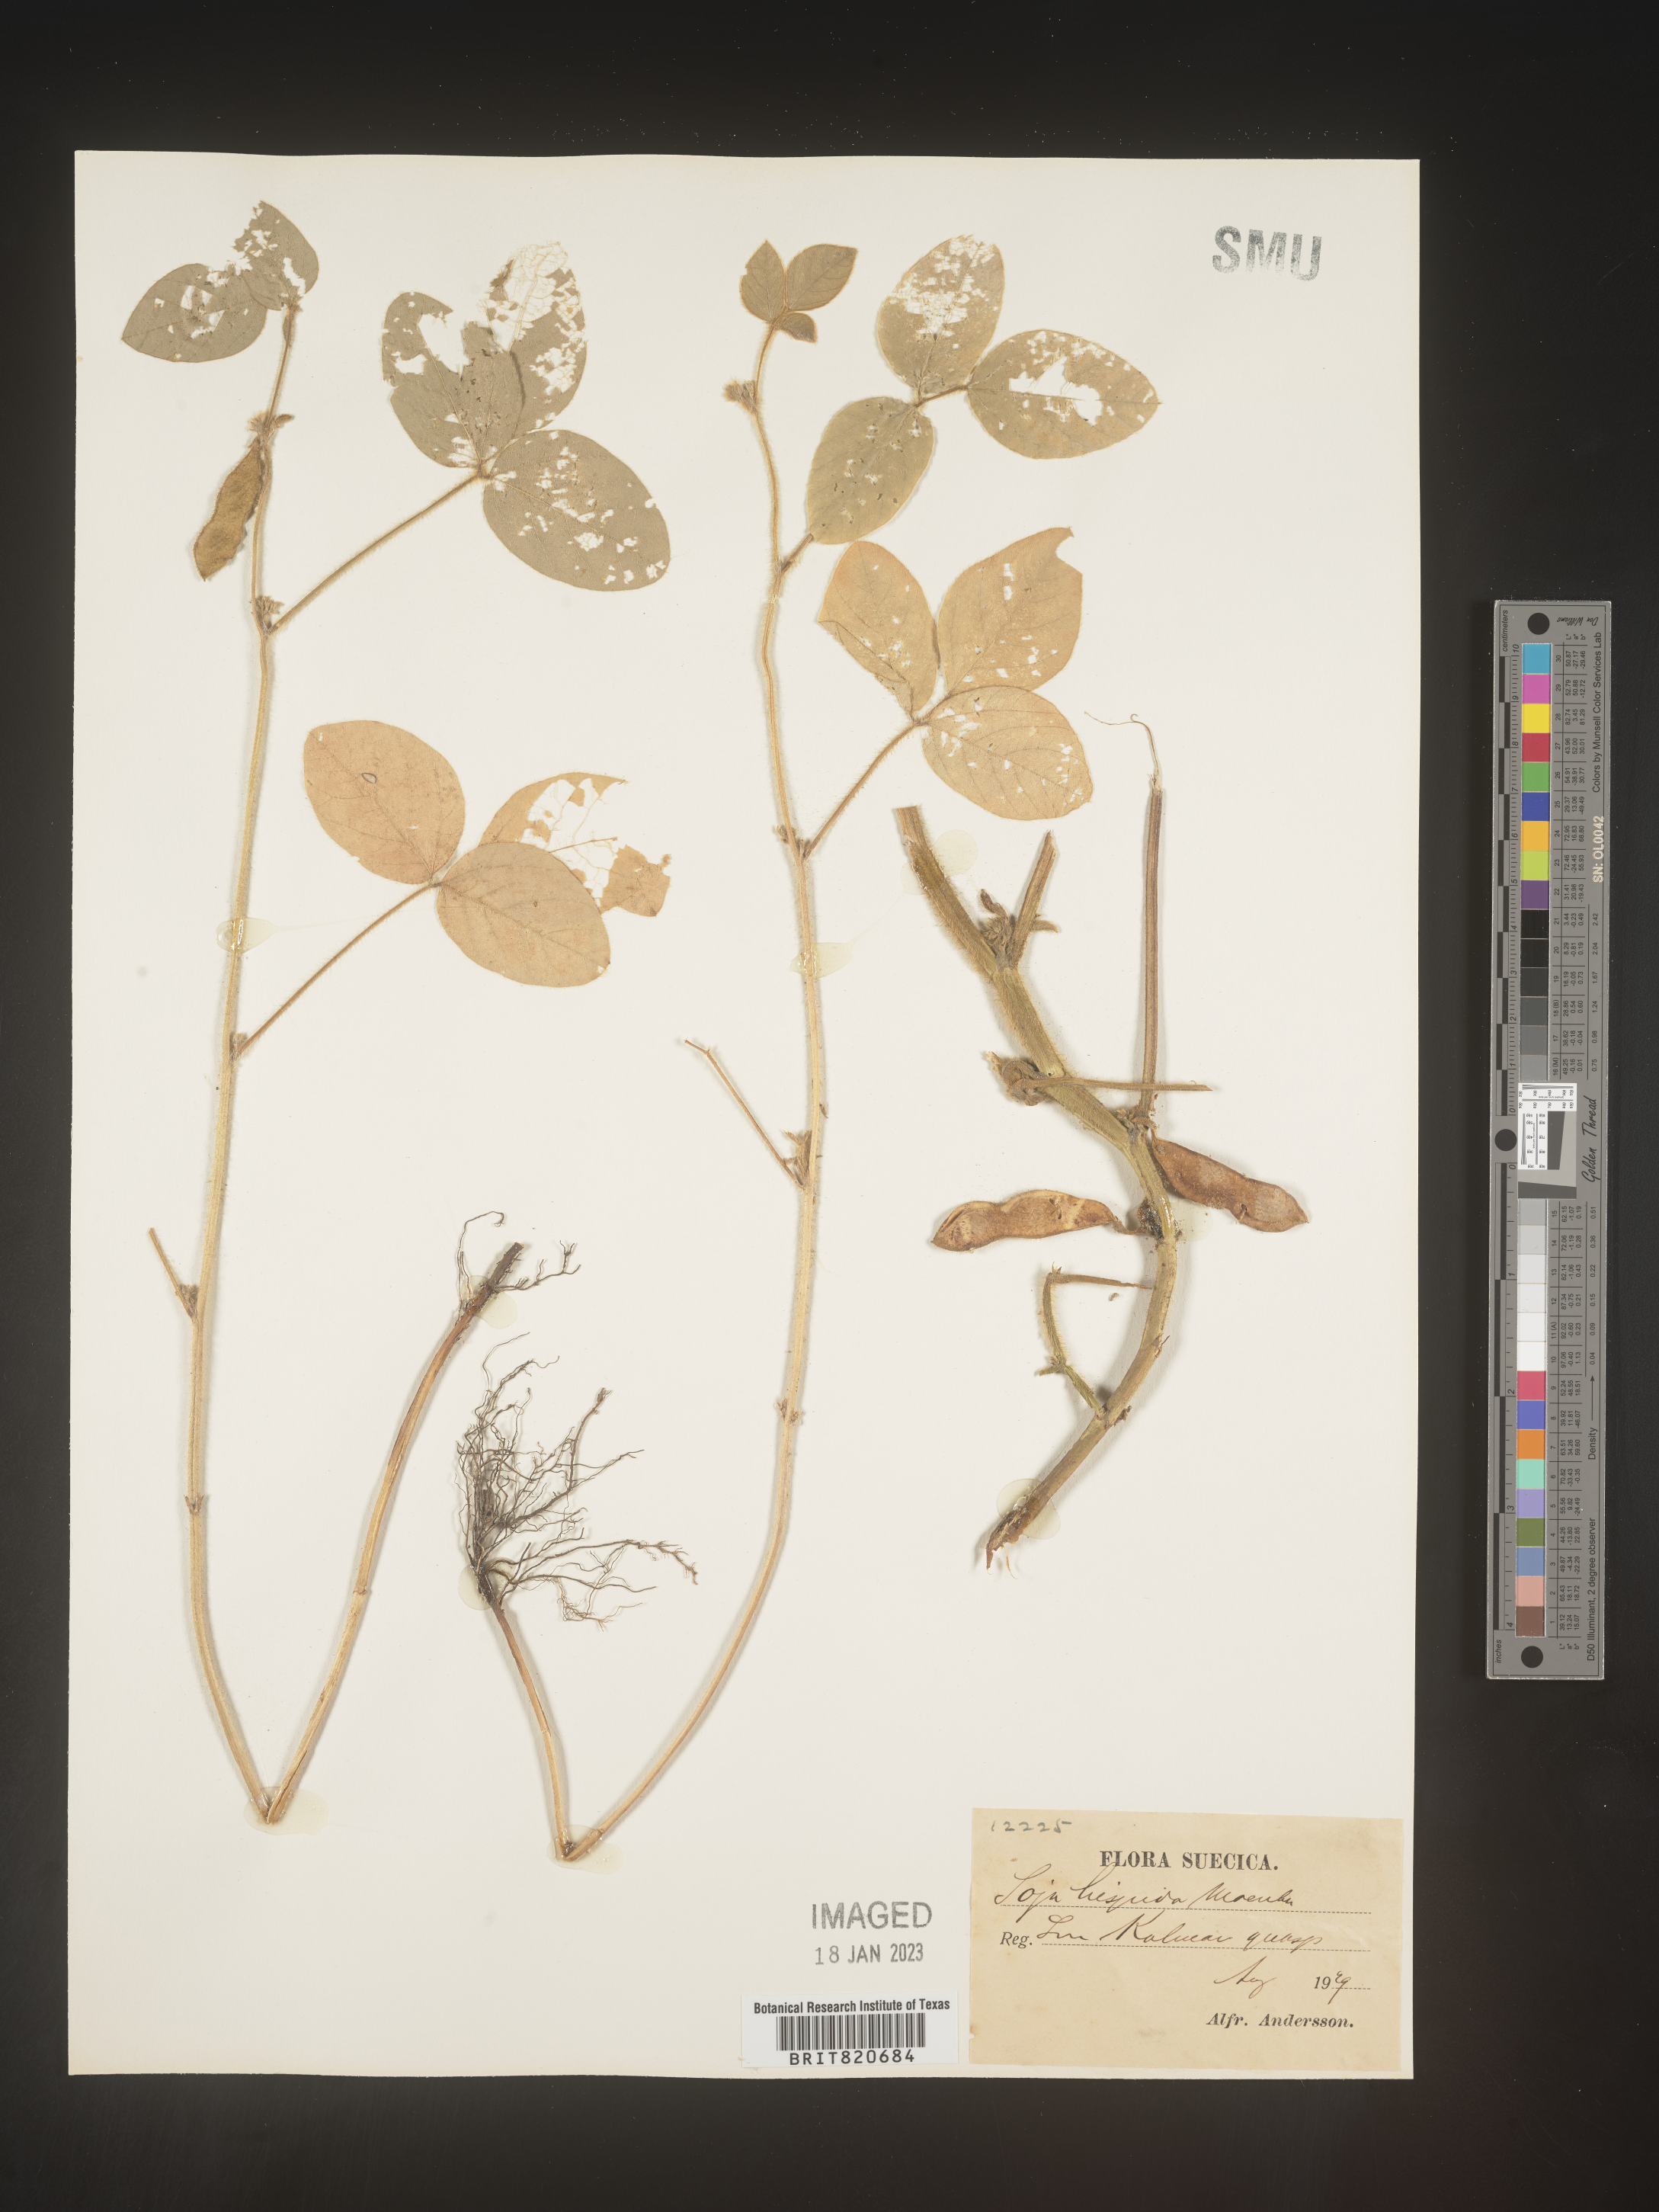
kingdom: Plantae
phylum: Tracheophyta
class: Magnoliopsida
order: Fabales
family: Fabaceae
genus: Glycine
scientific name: Glycine
